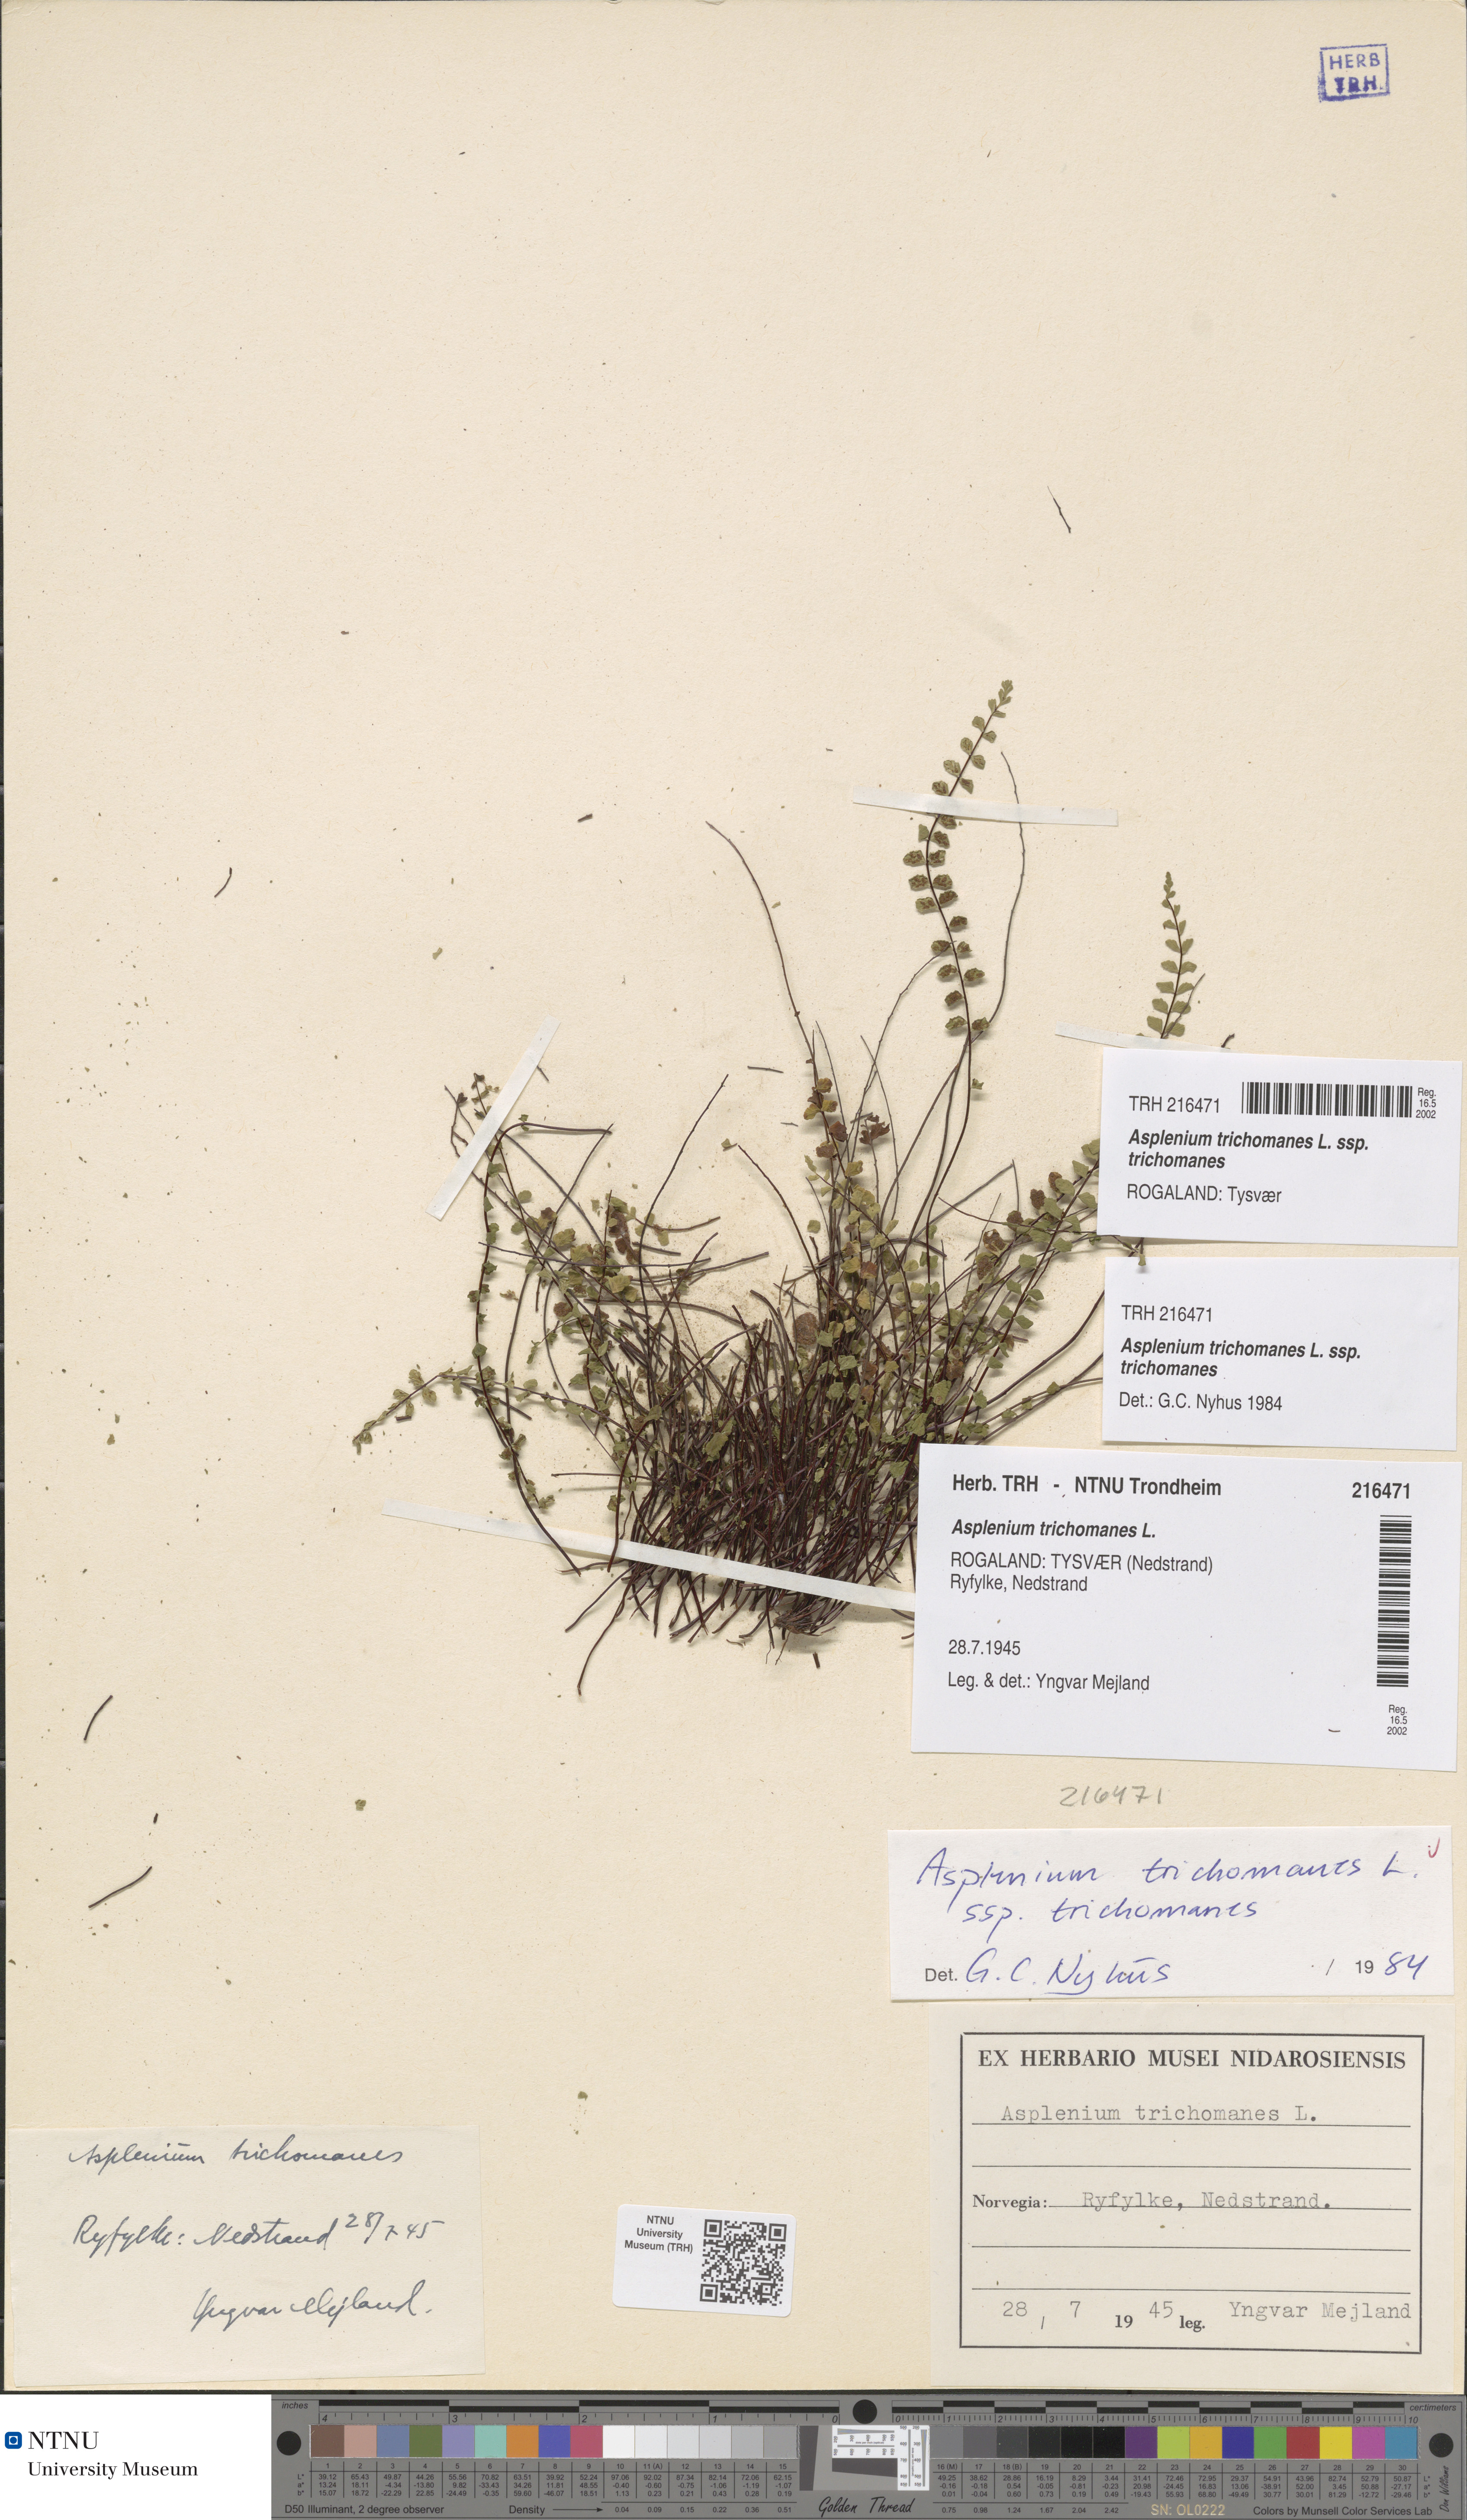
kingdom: Plantae
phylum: Tracheophyta
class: Polypodiopsida
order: Polypodiales
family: Aspleniaceae
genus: Asplenium
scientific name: Asplenium trichomanes
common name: Maidenhair spleenwort
